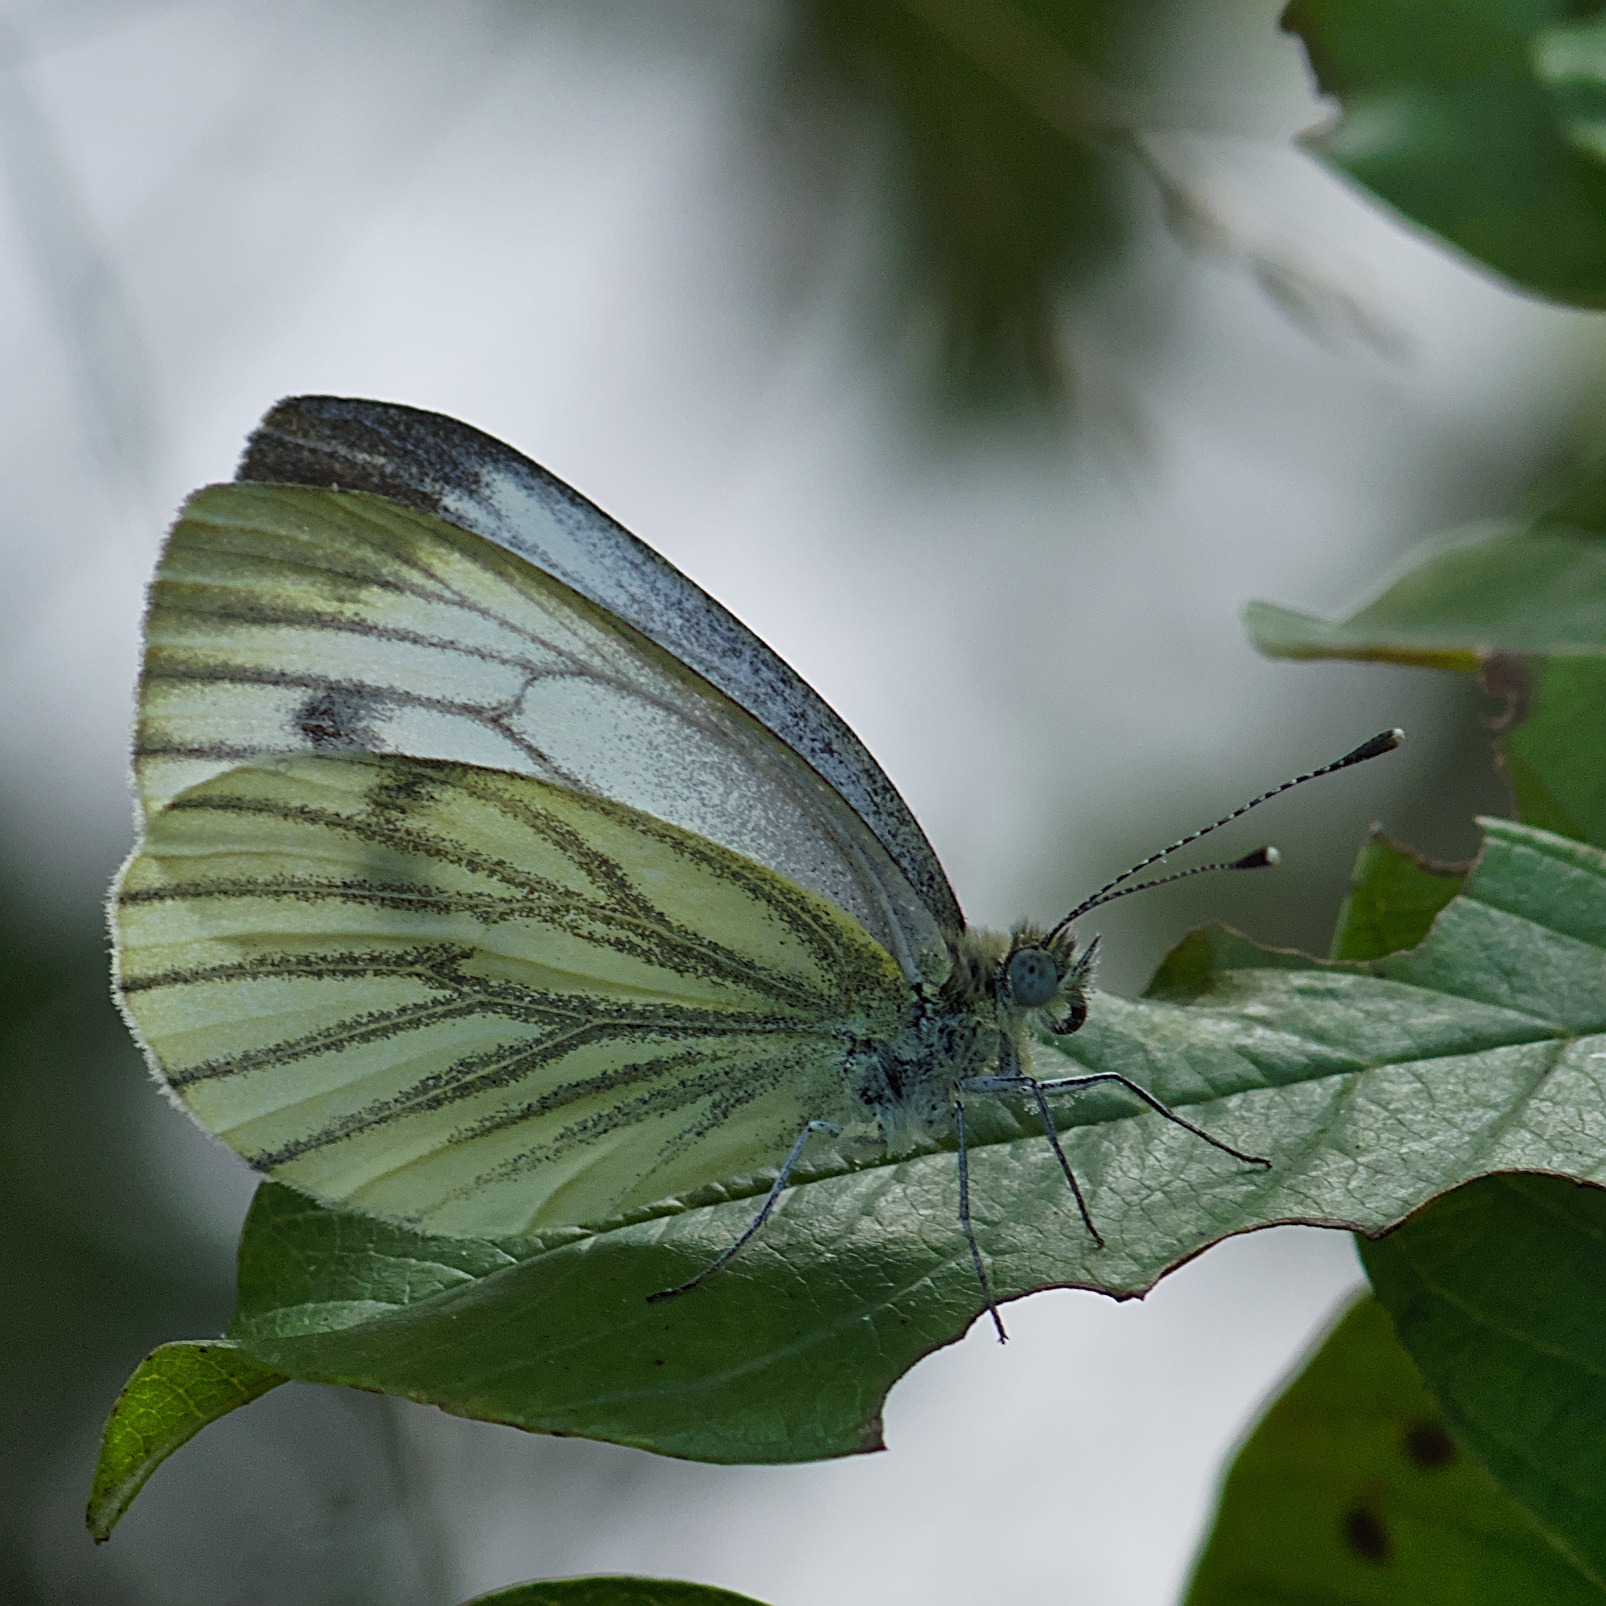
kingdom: Animalia
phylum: Arthropoda
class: Insecta
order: Lepidoptera
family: Pieridae
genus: Pieris
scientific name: Pieris napi
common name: Grønåret kålsommerfugl
